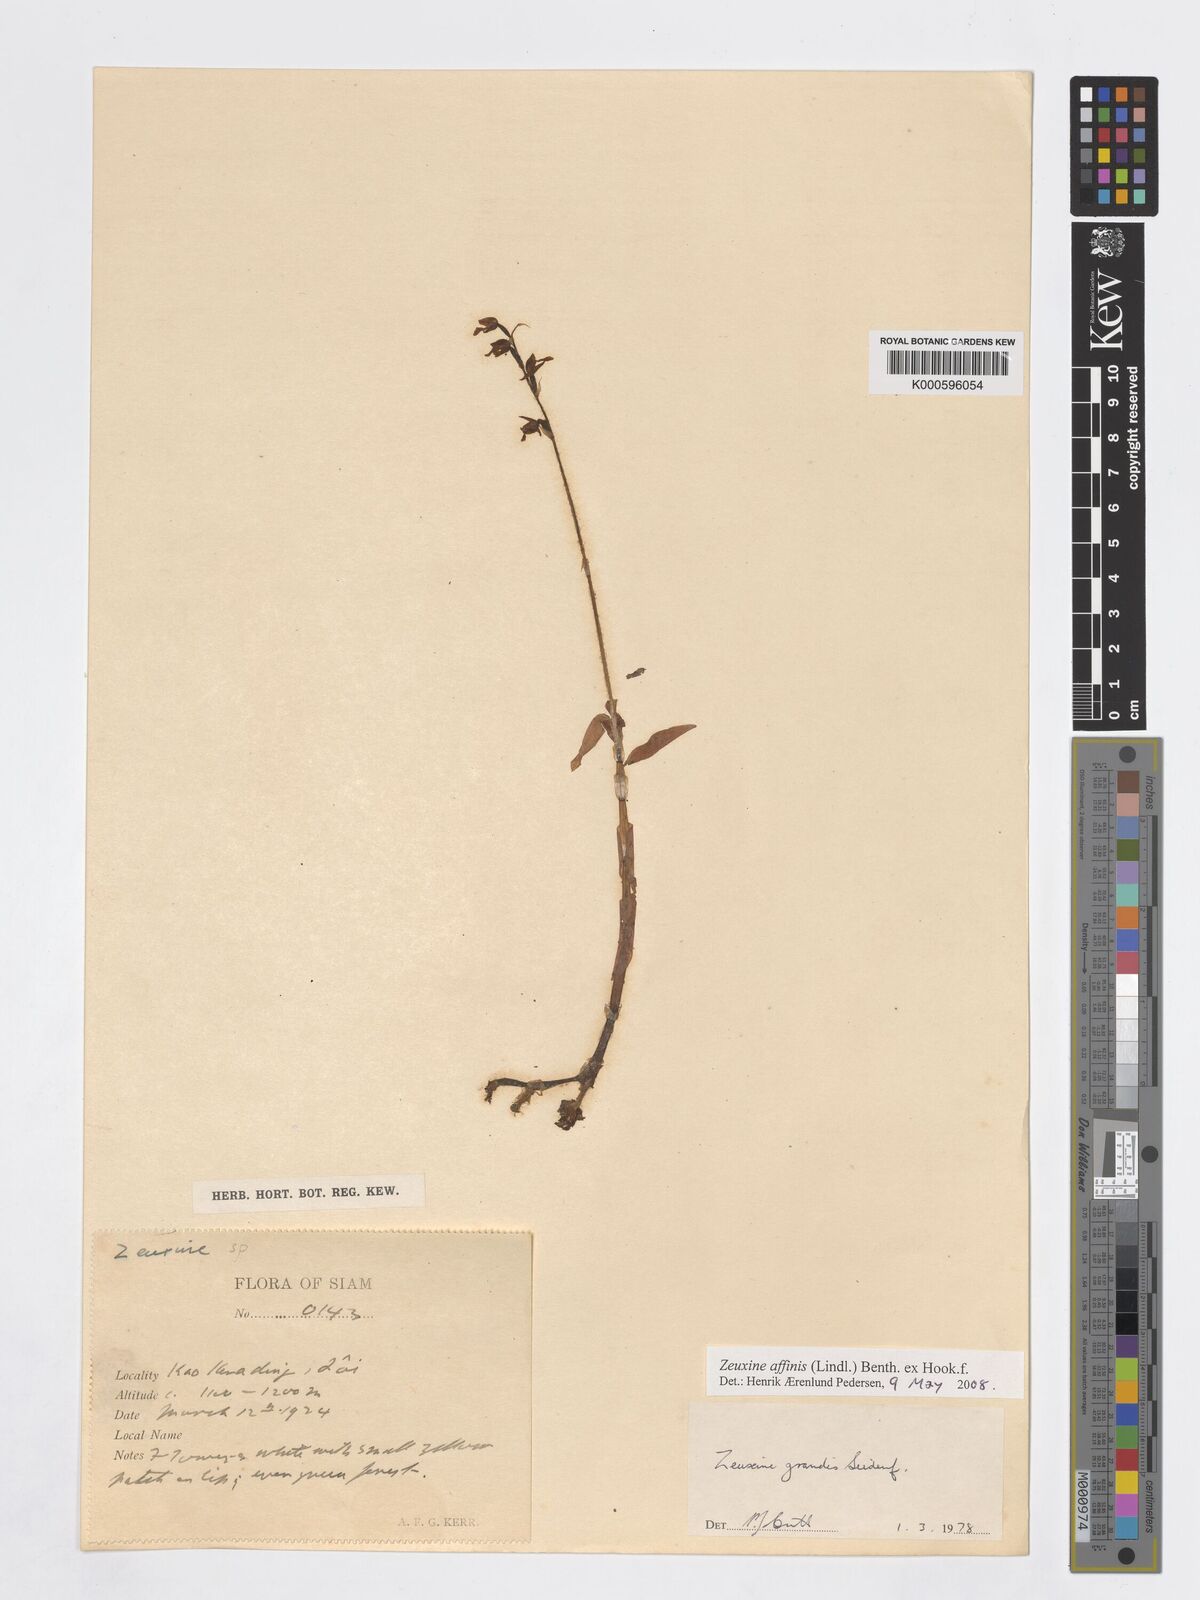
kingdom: Plantae
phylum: Tracheophyta
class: Liliopsida
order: Asparagales
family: Orchidaceae
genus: Zeuxine
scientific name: Zeuxine affinis
